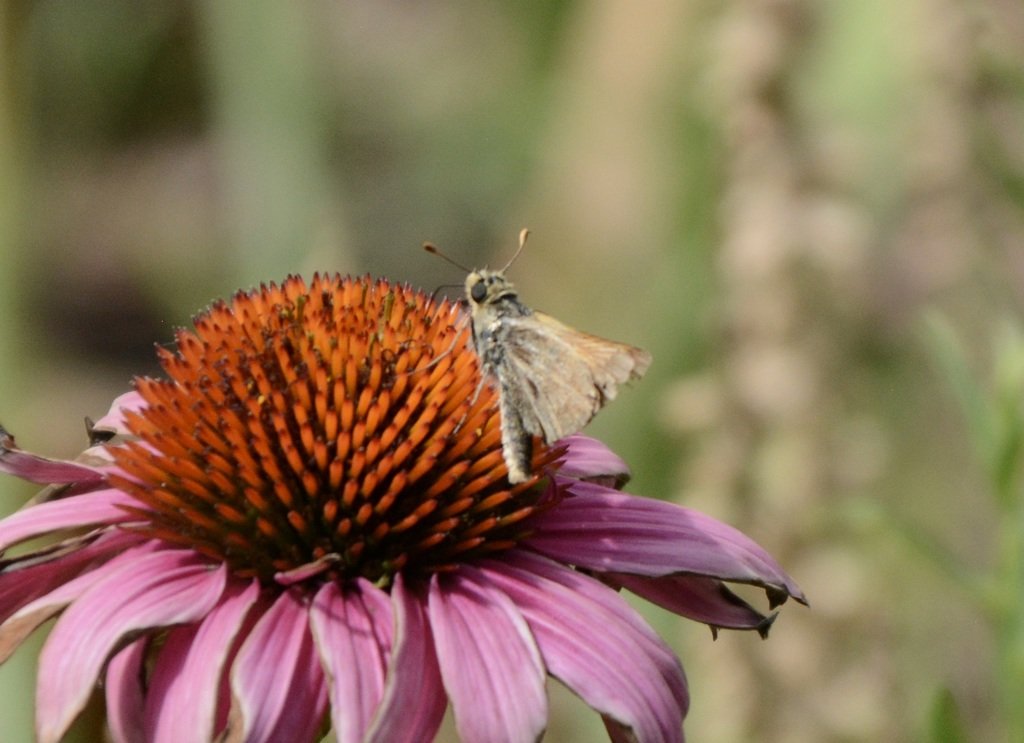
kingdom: Animalia
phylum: Arthropoda
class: Insecta
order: Lepidoptera
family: Hesperiidae
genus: Lon
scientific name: Lon taxiles
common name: Taxiles Skipper
